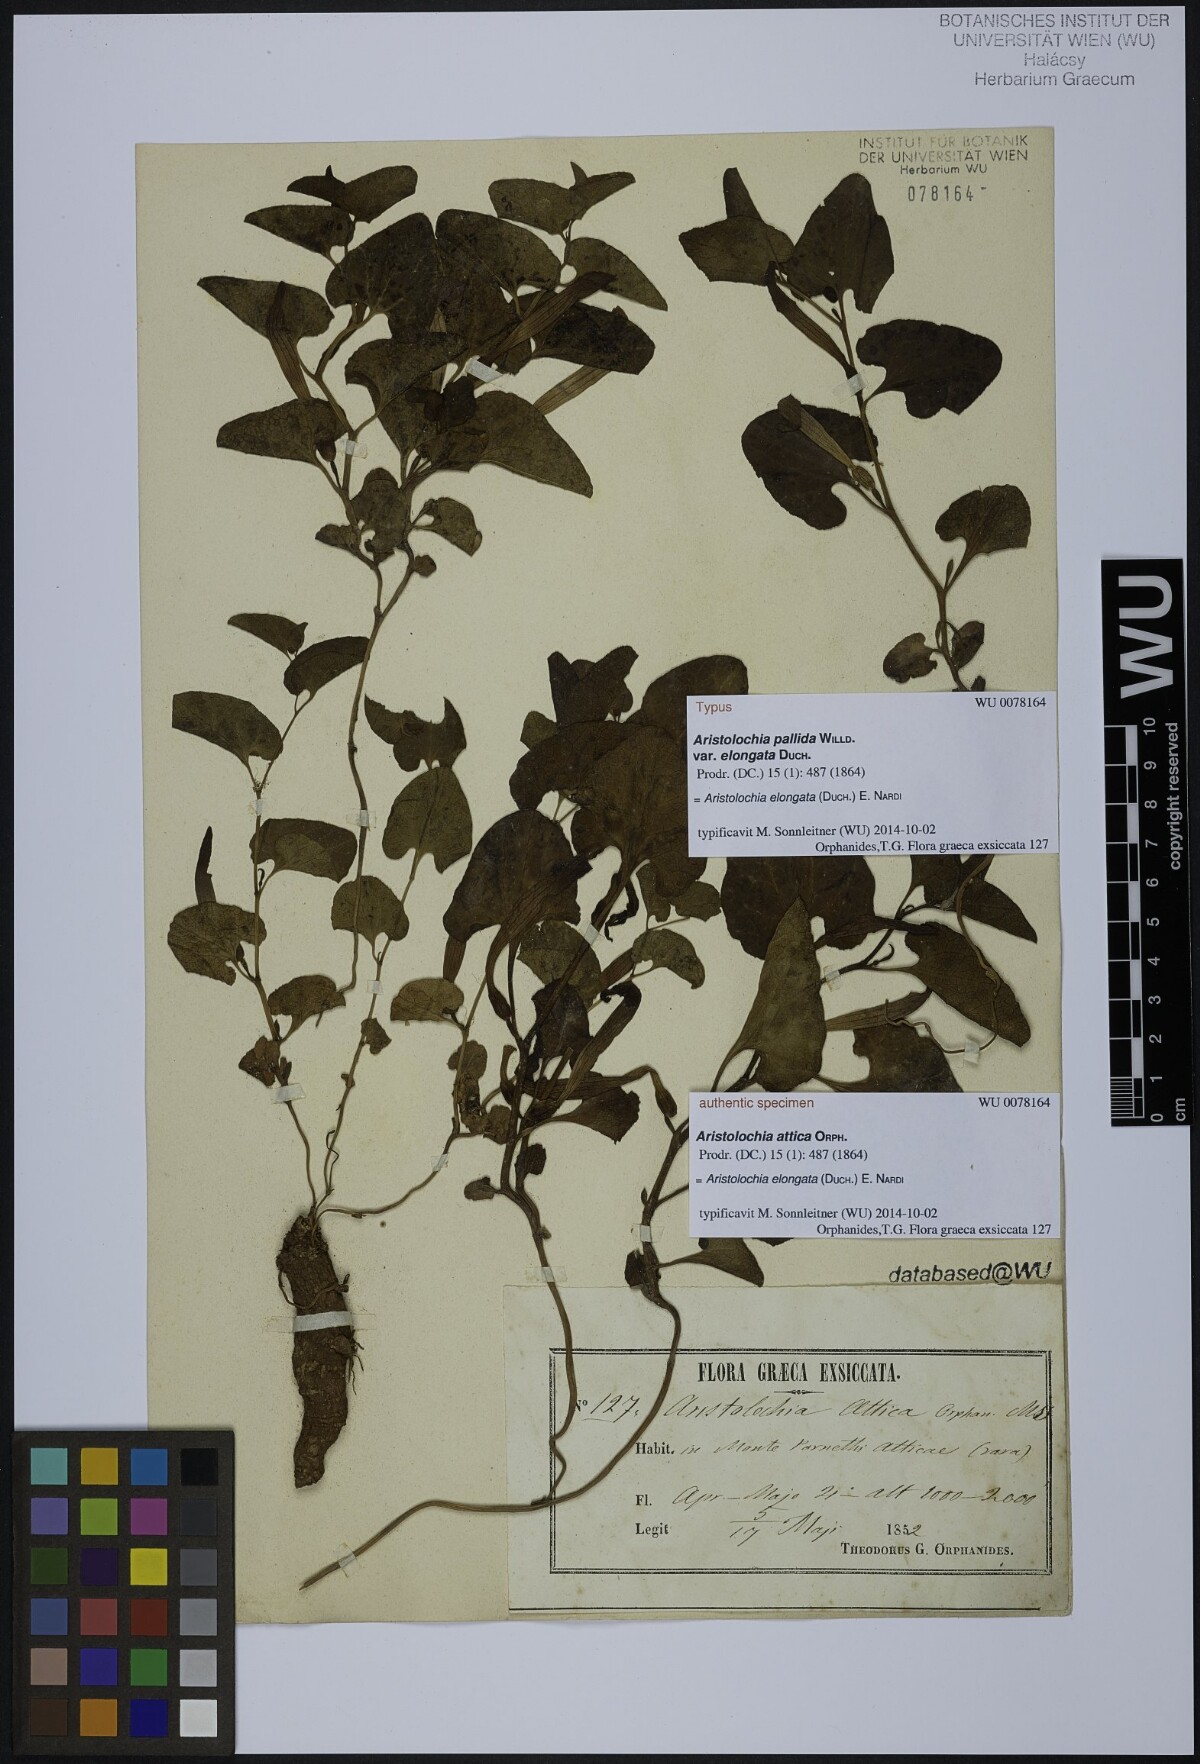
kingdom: Plantae
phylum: Tracheophyta
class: Magnoliopsida
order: Piperales
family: Aristolochiaceae
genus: Aristolochia
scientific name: Aristolochia nardiana
